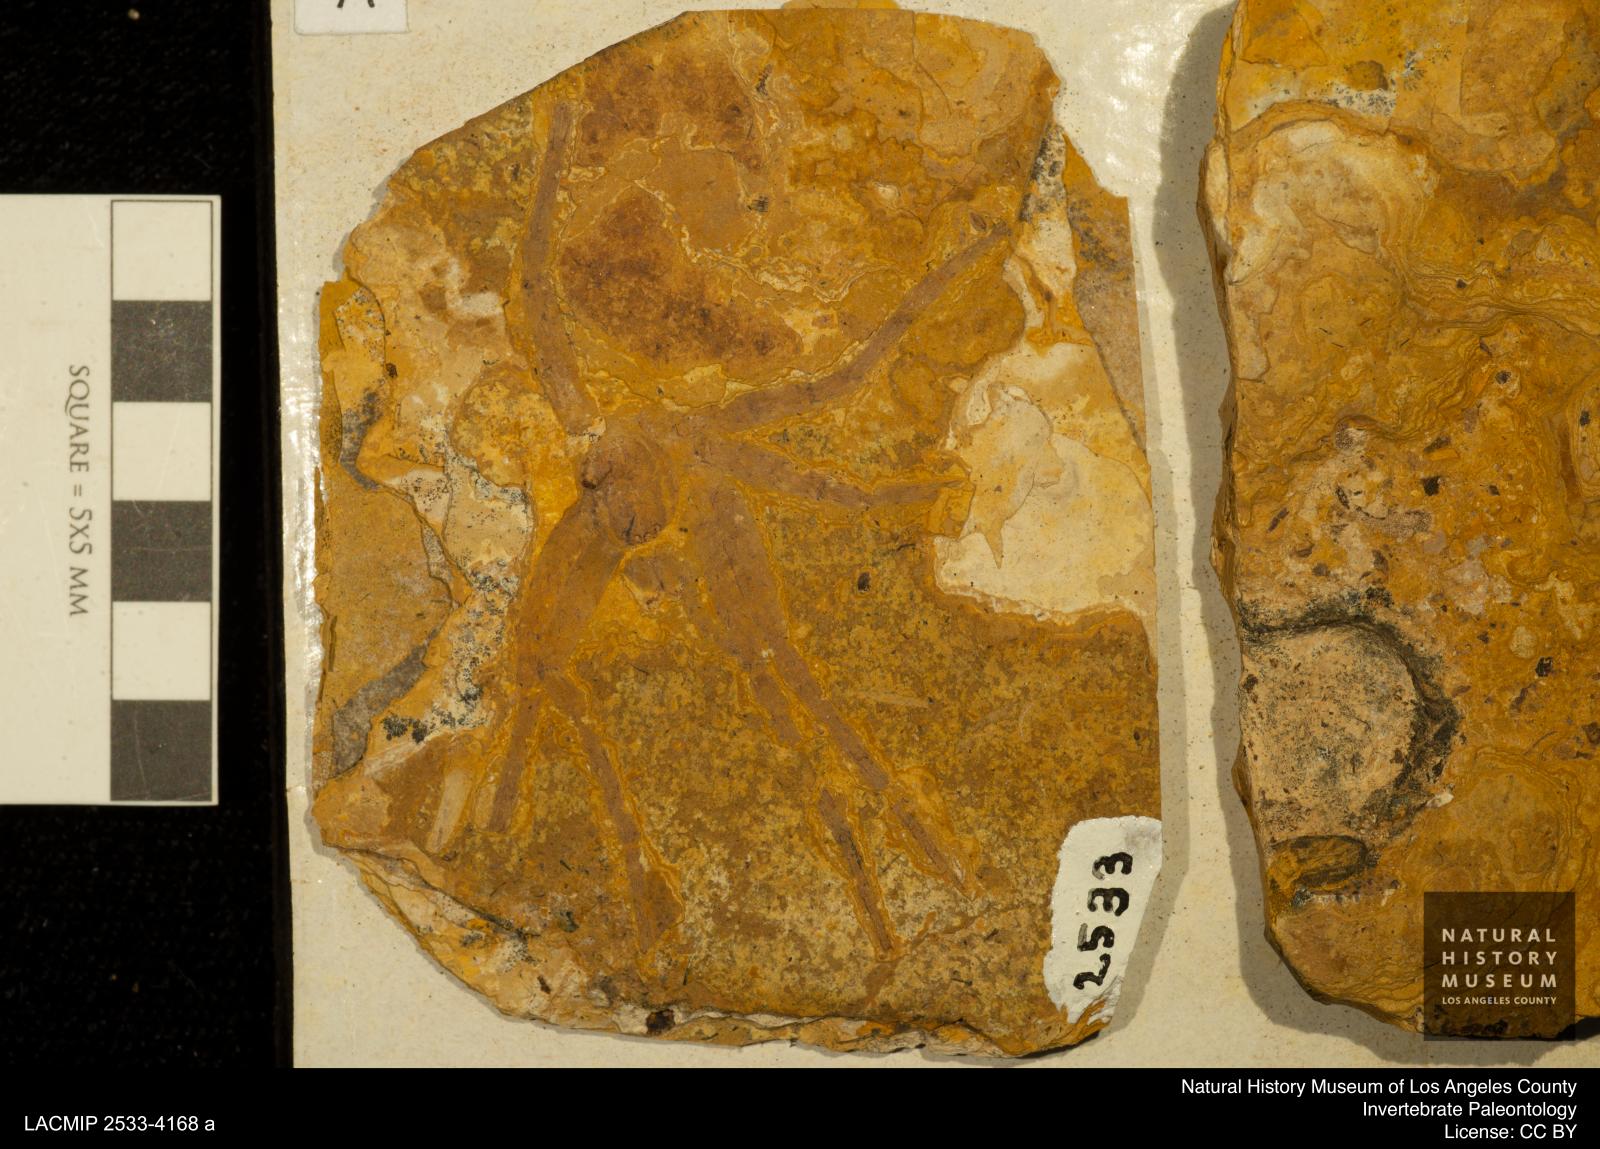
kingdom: Animalia
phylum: Arthropoda
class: Arachnida
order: Araneae
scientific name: Araneae
